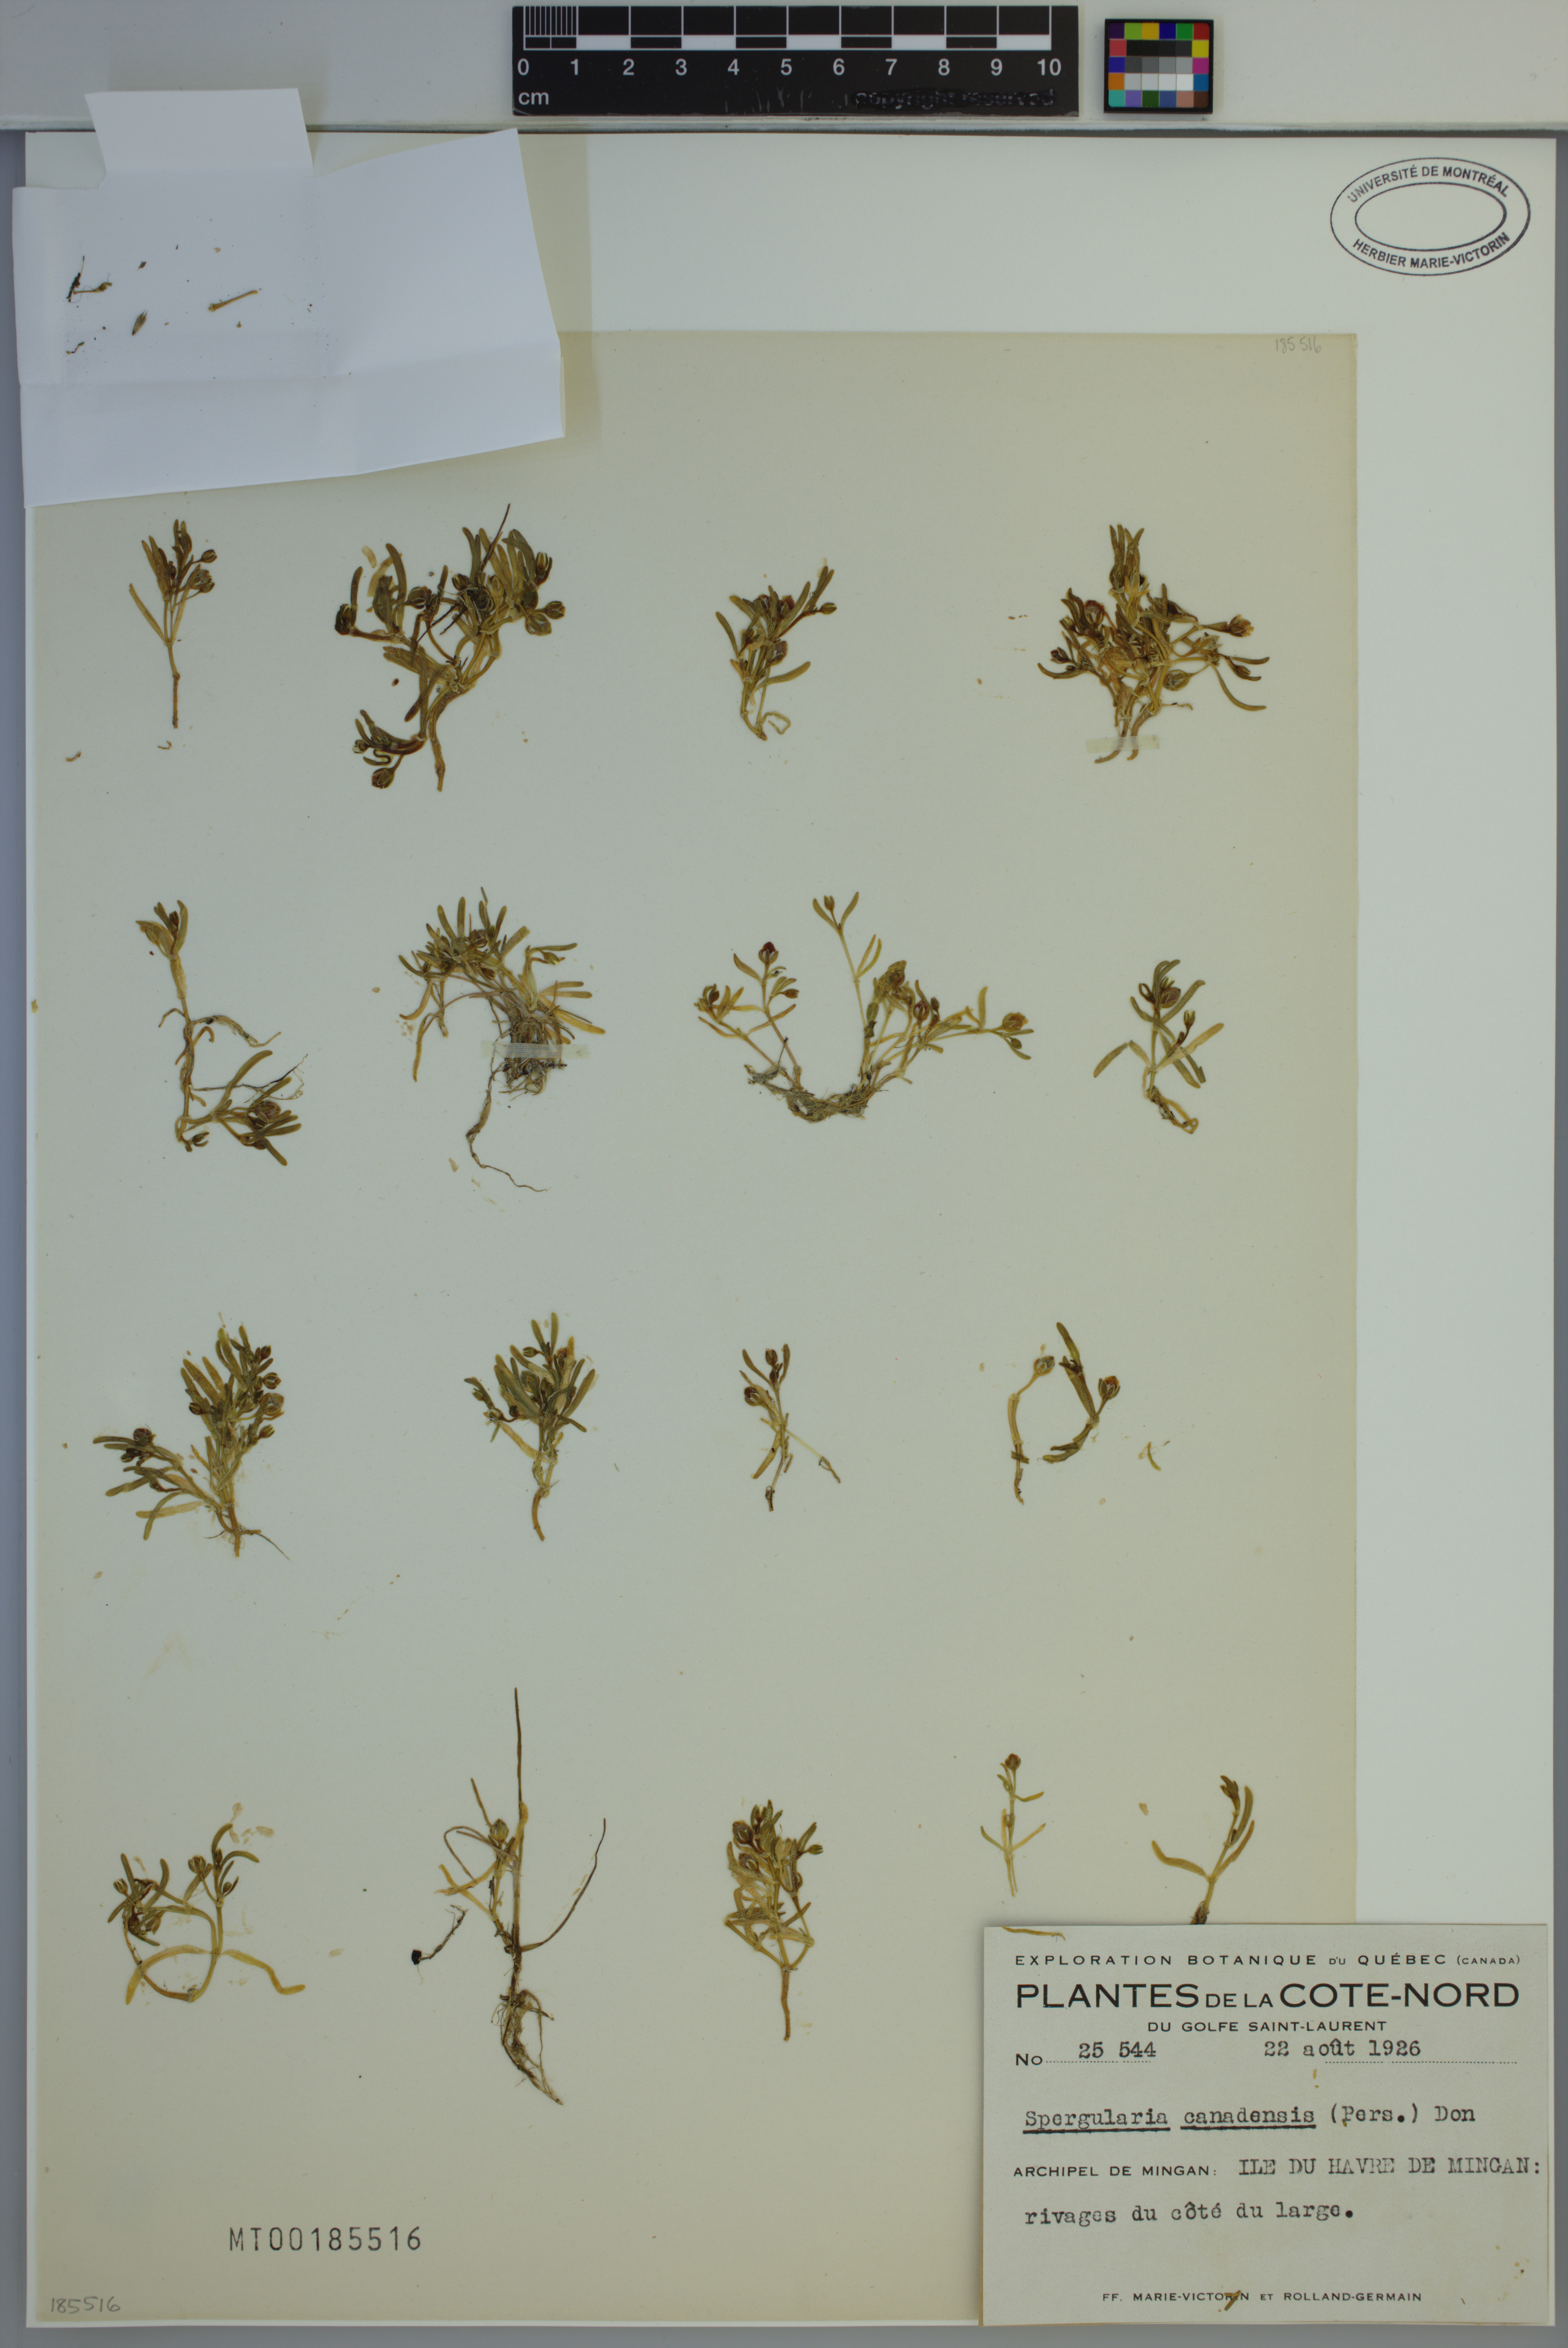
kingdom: Plantae
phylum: Tracheophyta
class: Magnoliopsida
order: Caryophyllales
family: Caryophyllaceae
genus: Spergularia
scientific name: Spergularia canadensis
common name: Canada sand-spurrey
